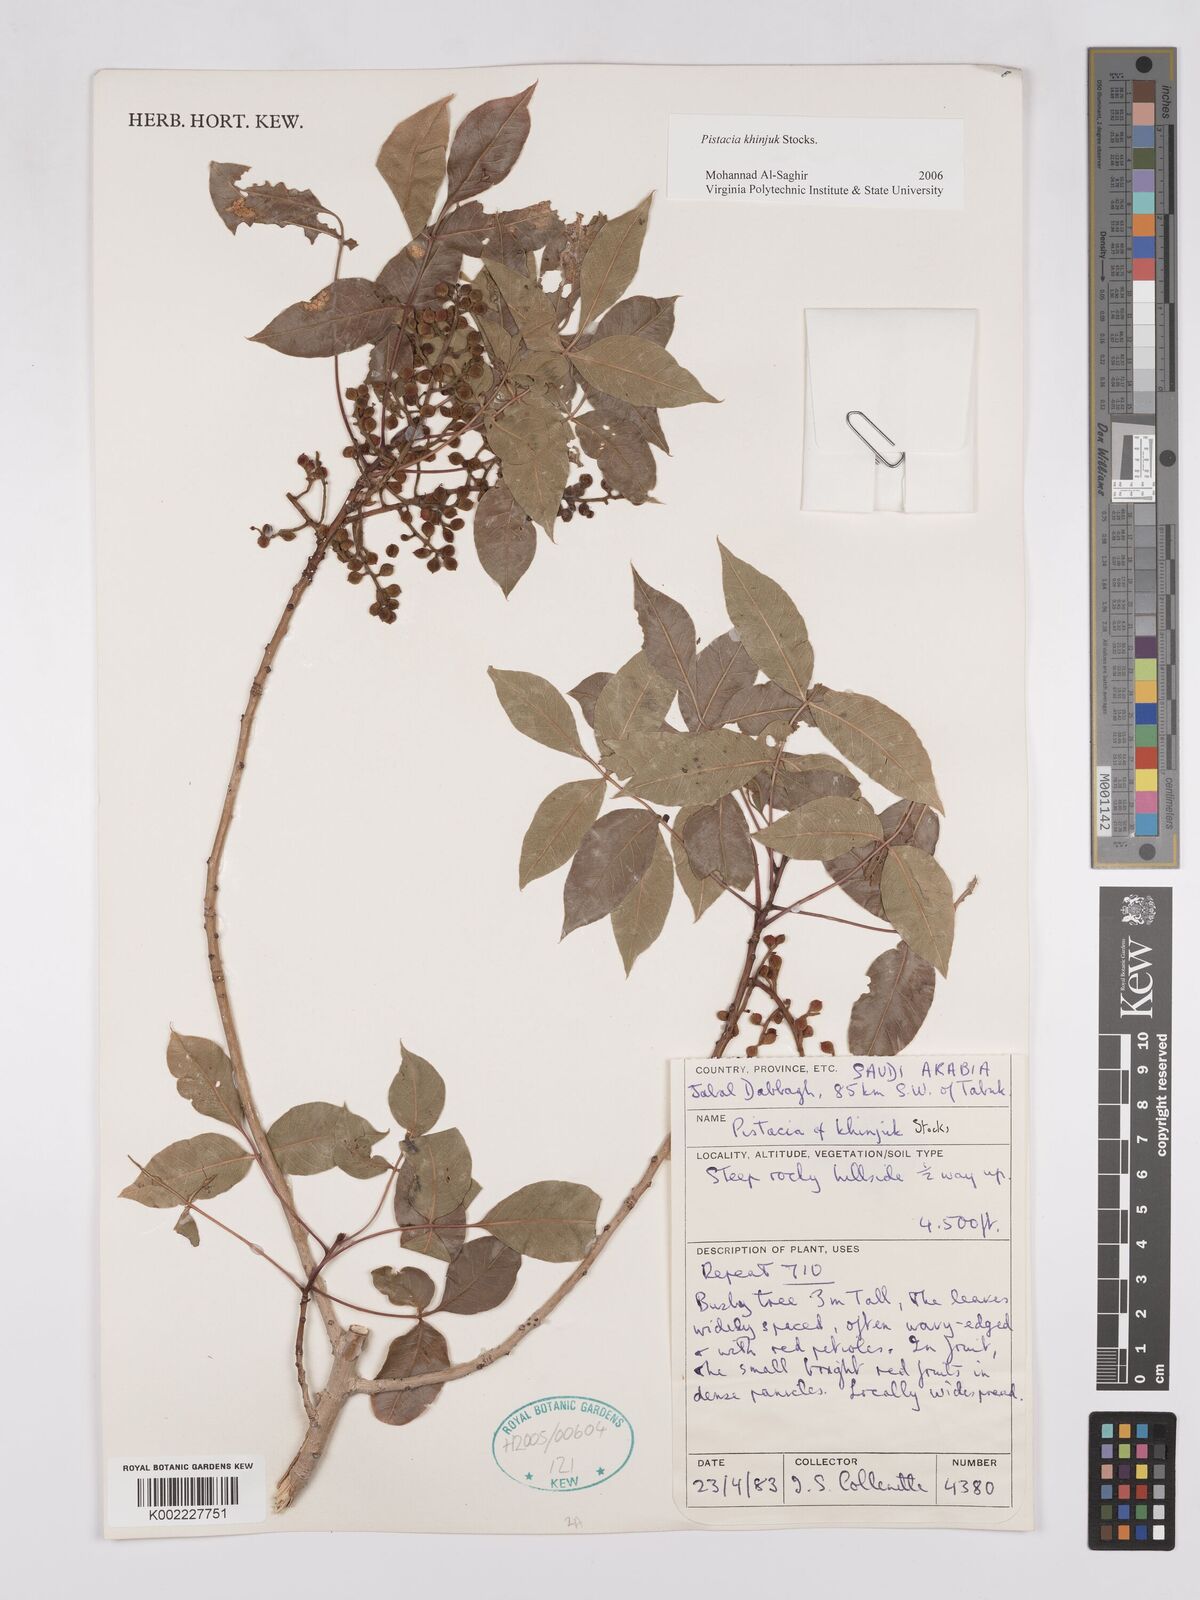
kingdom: Plantae
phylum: Tracheophyta
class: Magnoliopsida
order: Sapindales
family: Anacardiaceae
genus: Pistacia
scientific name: Pistacia khinjuk
